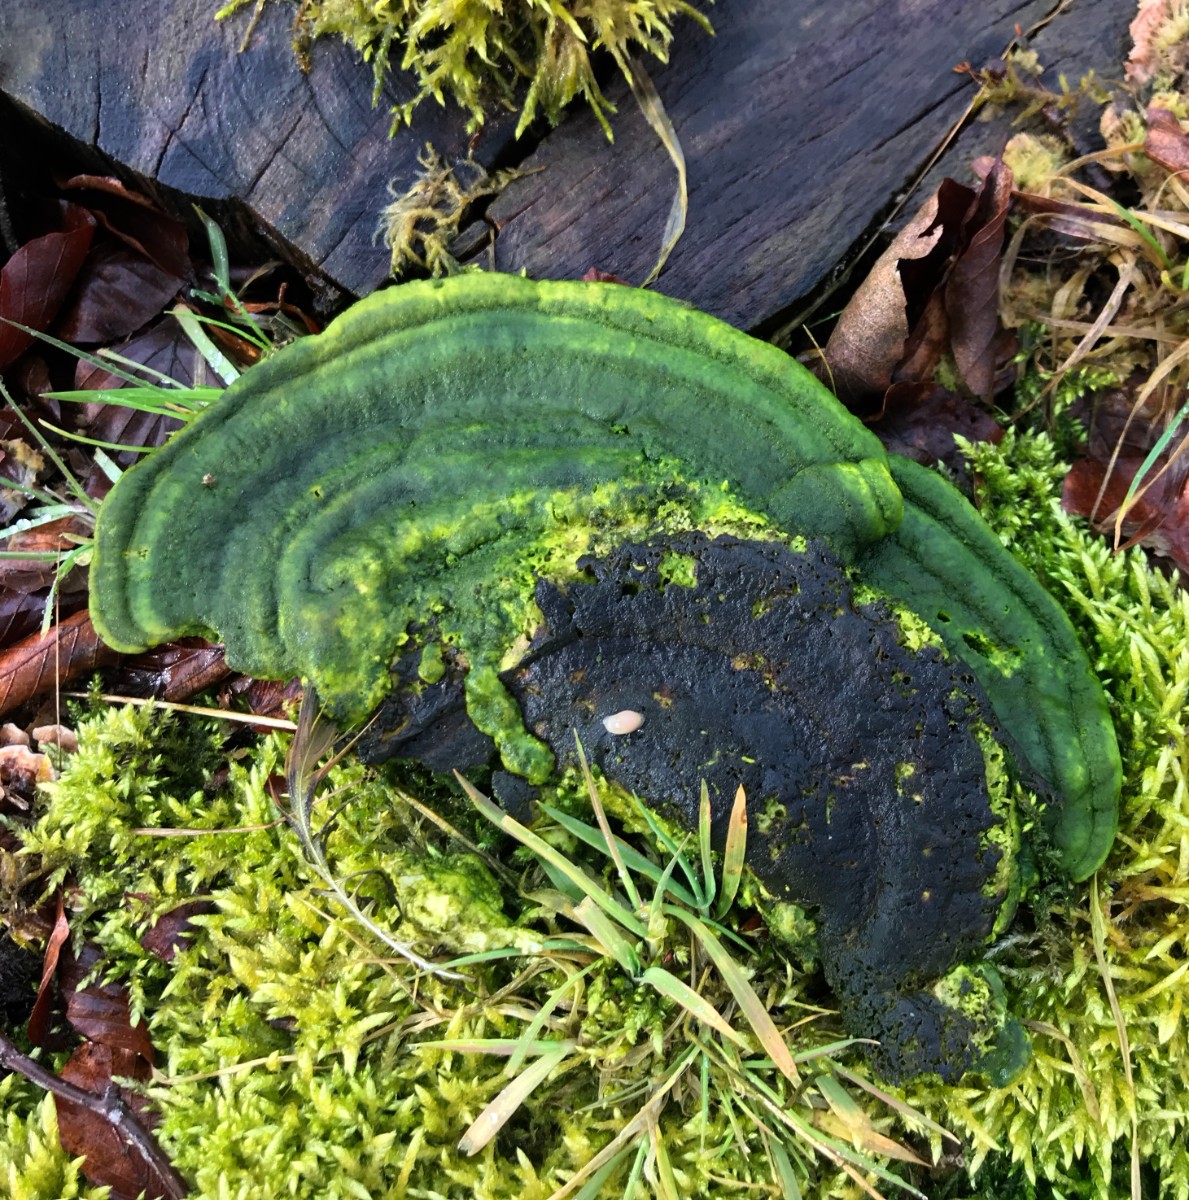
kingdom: Fungi
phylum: Basidiomycota
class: Agaricomycetes
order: Polyporales
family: Polyporaceae
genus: Trametes
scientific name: Trametes hirsuta
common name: håret læderporesvamp
